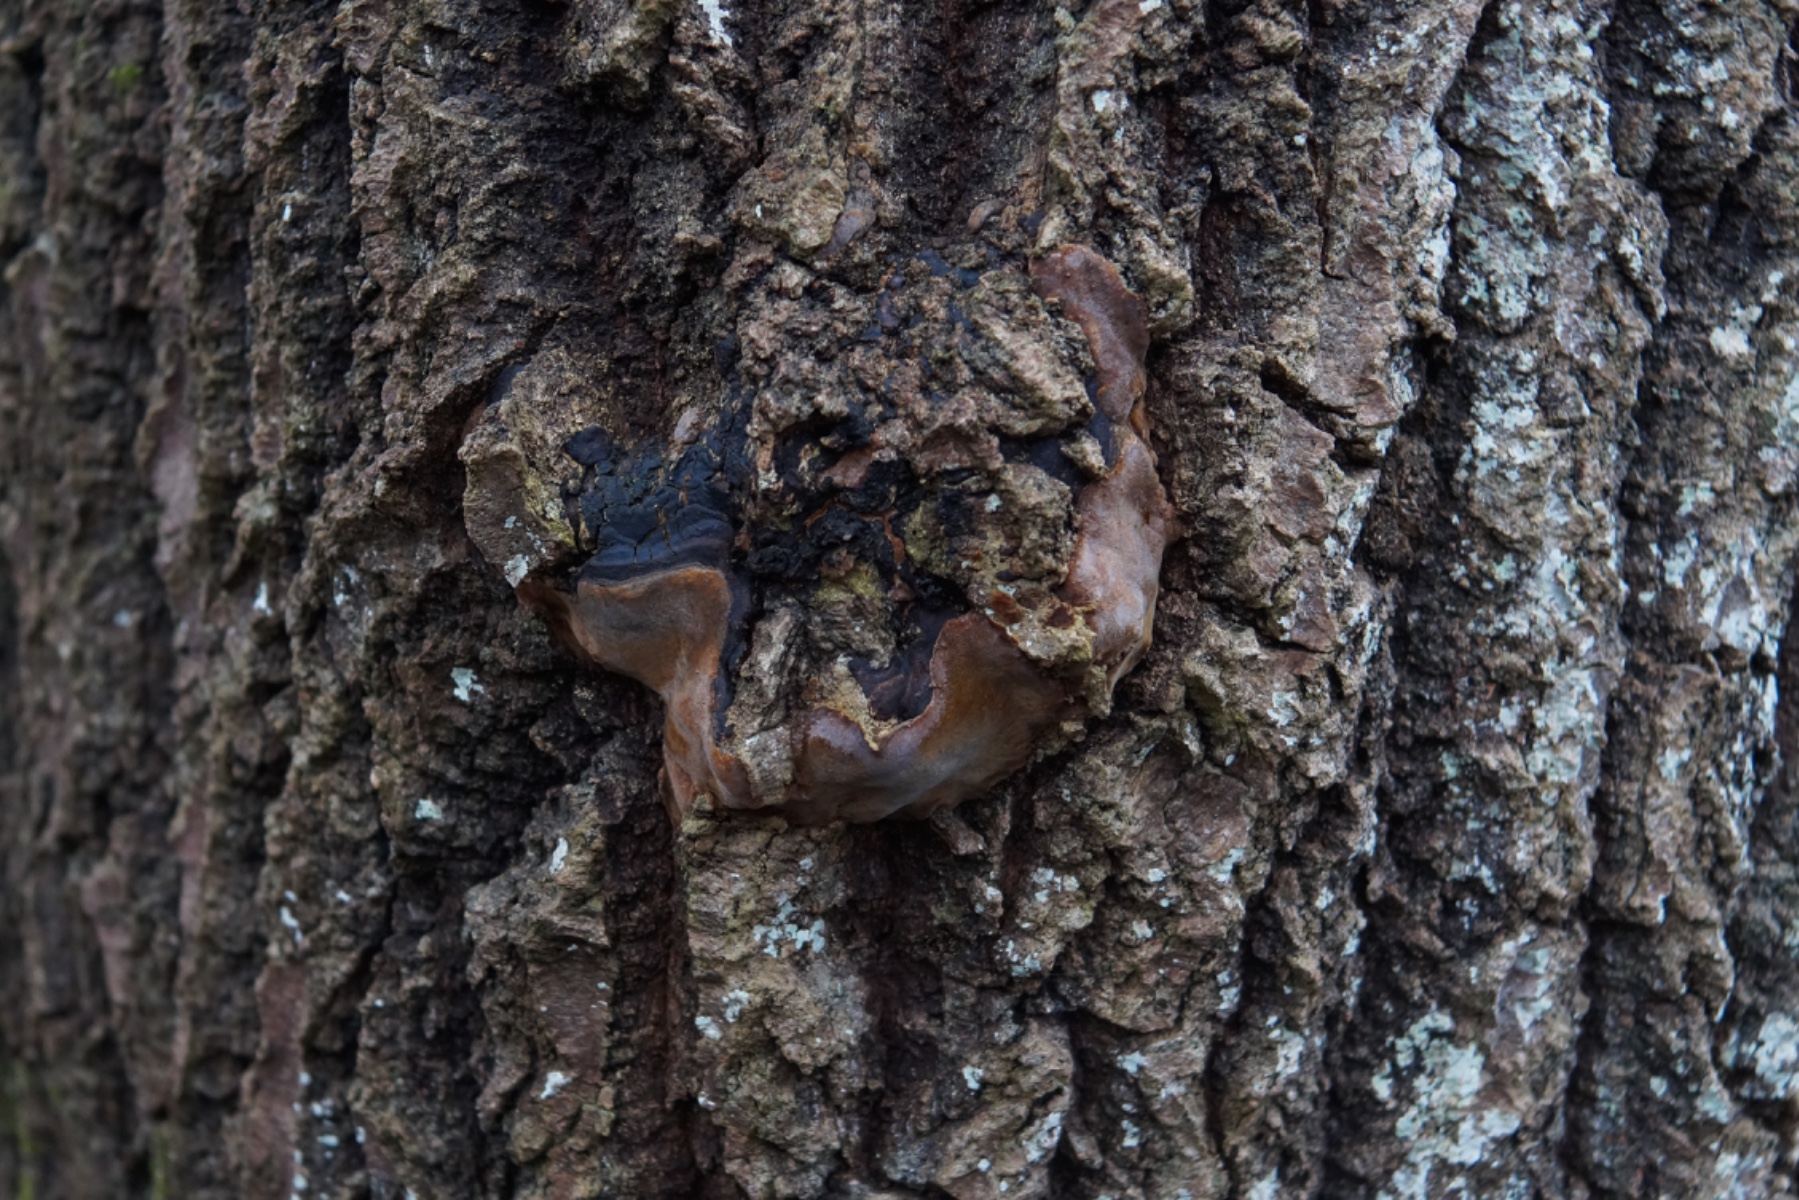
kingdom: Fungi
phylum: Basidiomycota
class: Agaricomycetes
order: Hymenochaetales
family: Hymenochaetaceae
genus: Phellinus
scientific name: Phellinus tremulae
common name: aspe-ildporesvamp
